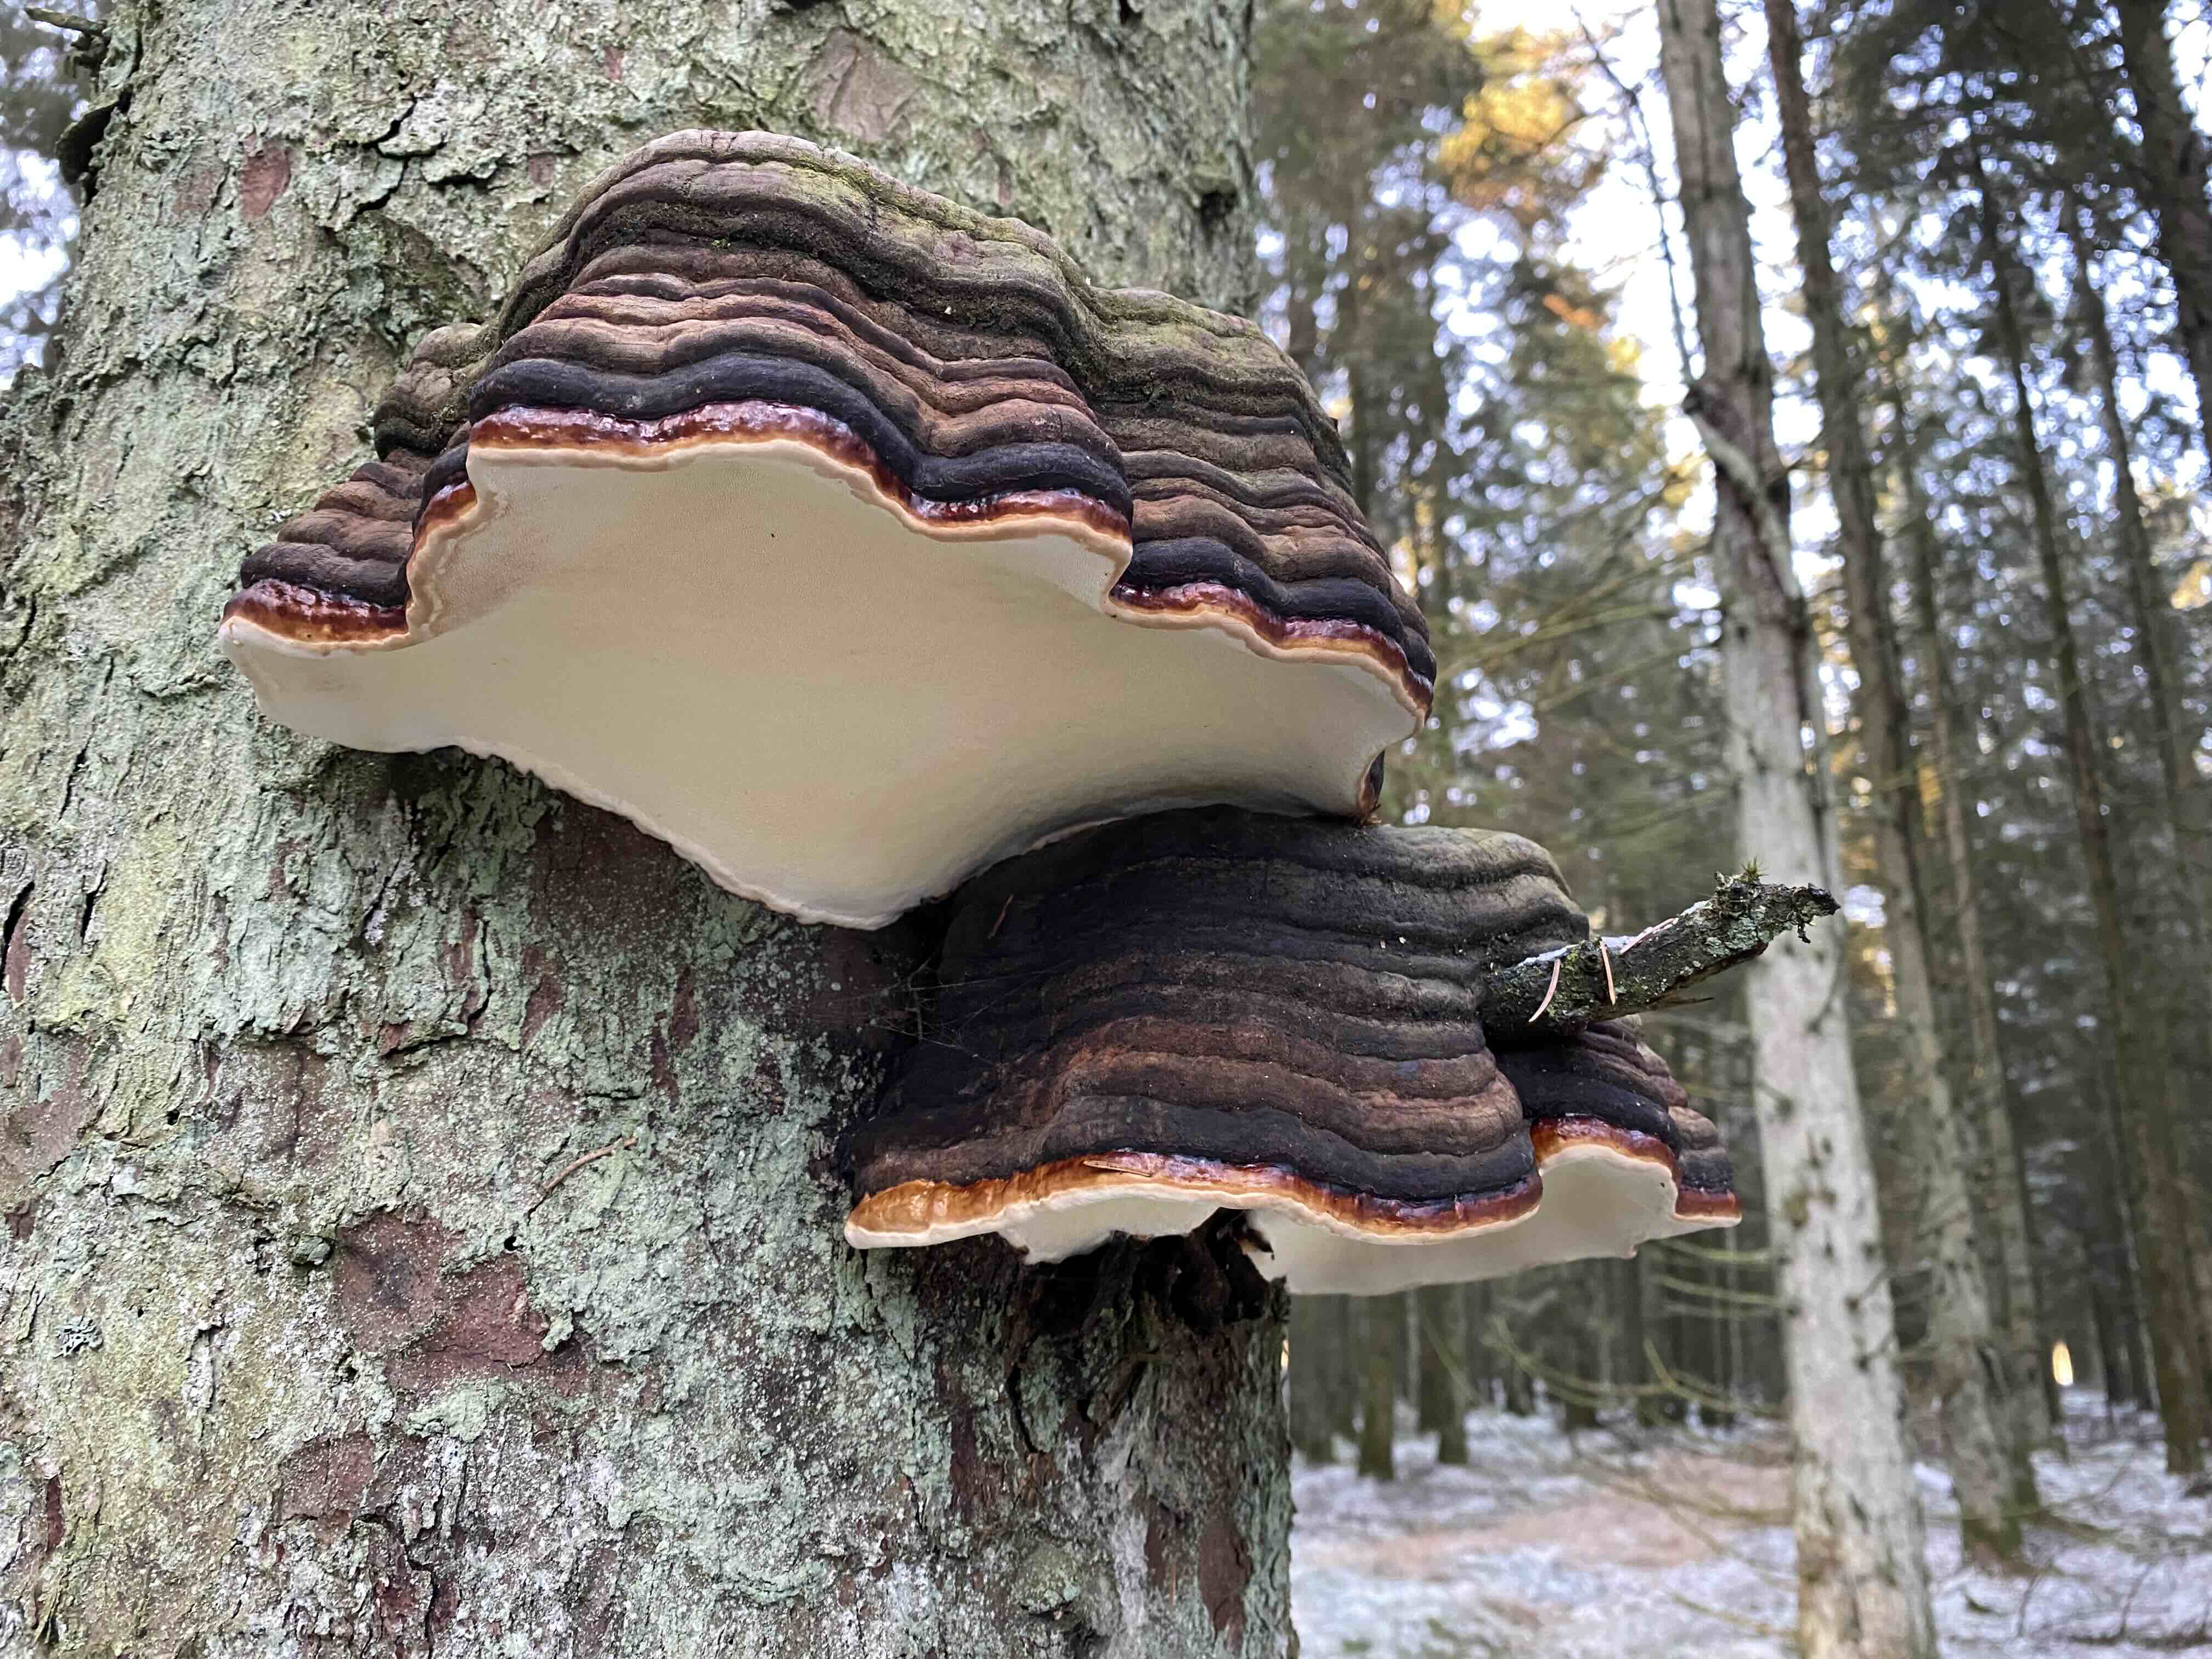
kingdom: Fungi
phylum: Basidiomycota
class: Agaricomycetes
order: Polyporales
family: Fomitopsidaceae
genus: Fomitopsis
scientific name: Fomitopsis pinicola
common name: randbæltet hovporesvamp
